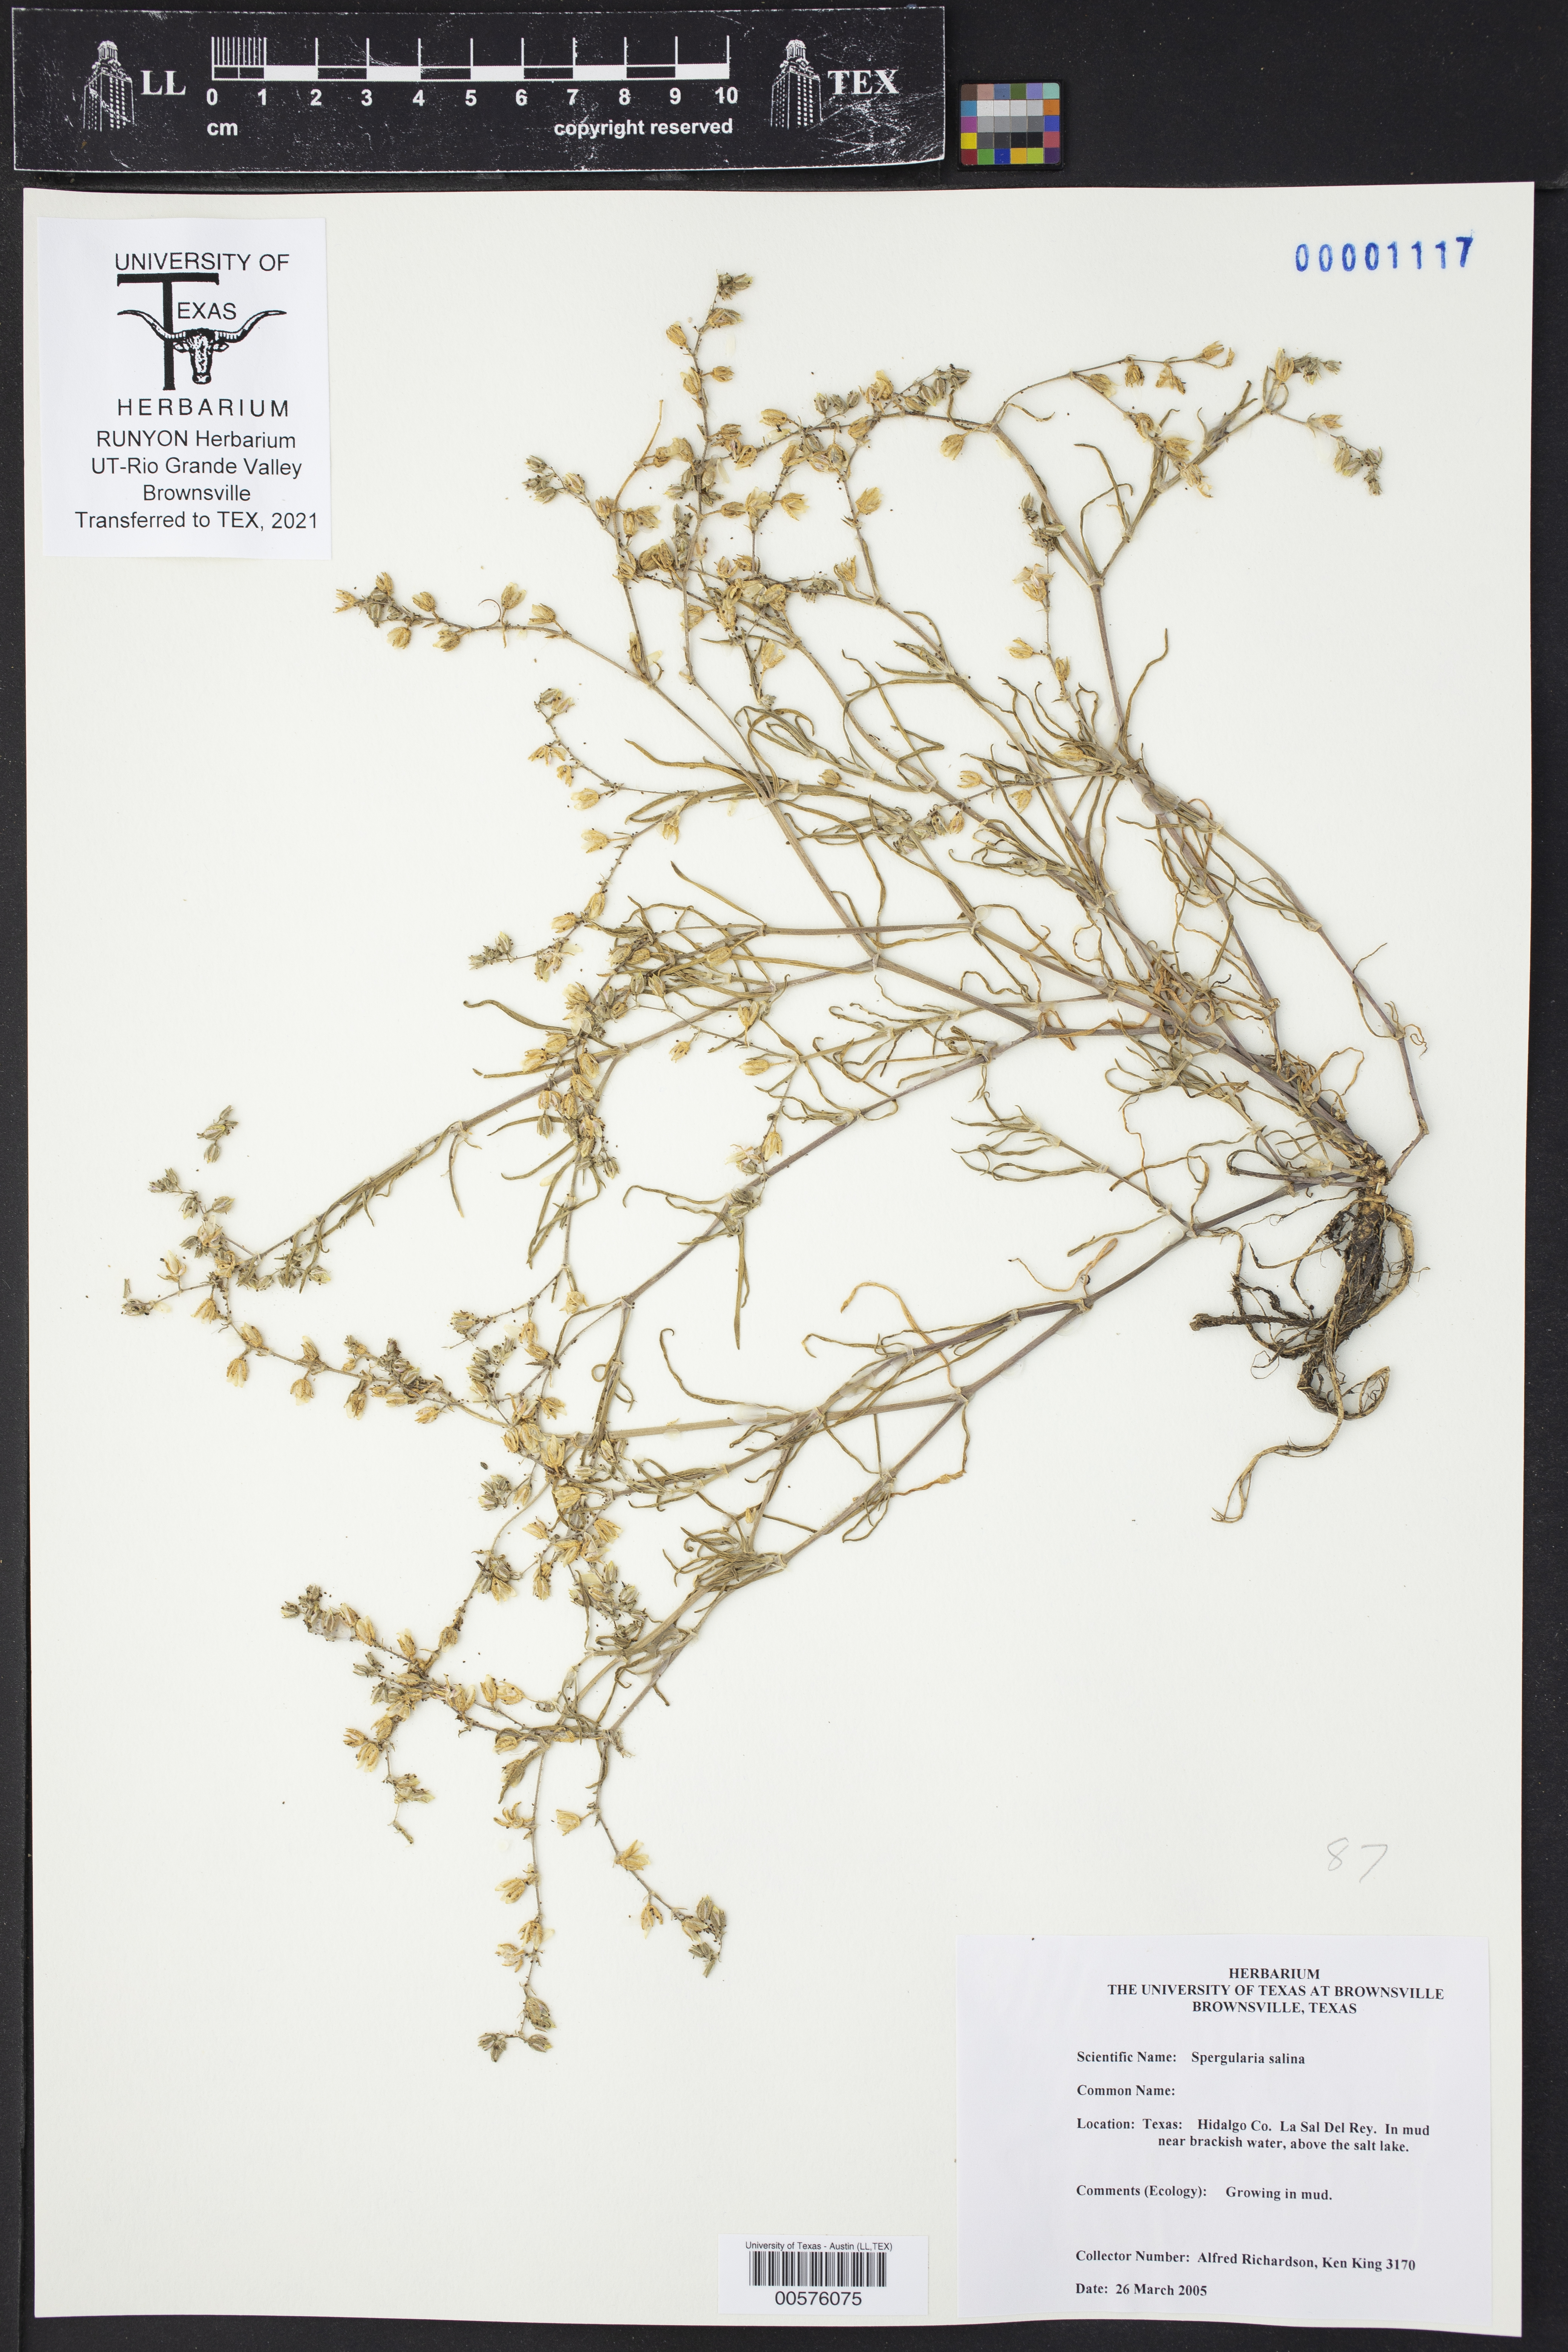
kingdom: Plantae
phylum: Tracheophyta
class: Magnoliopsida
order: Caryophyllales
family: Caryophyllaceae
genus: Spergularia
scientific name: Spergularia marina
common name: Lesser sea-spurrey
